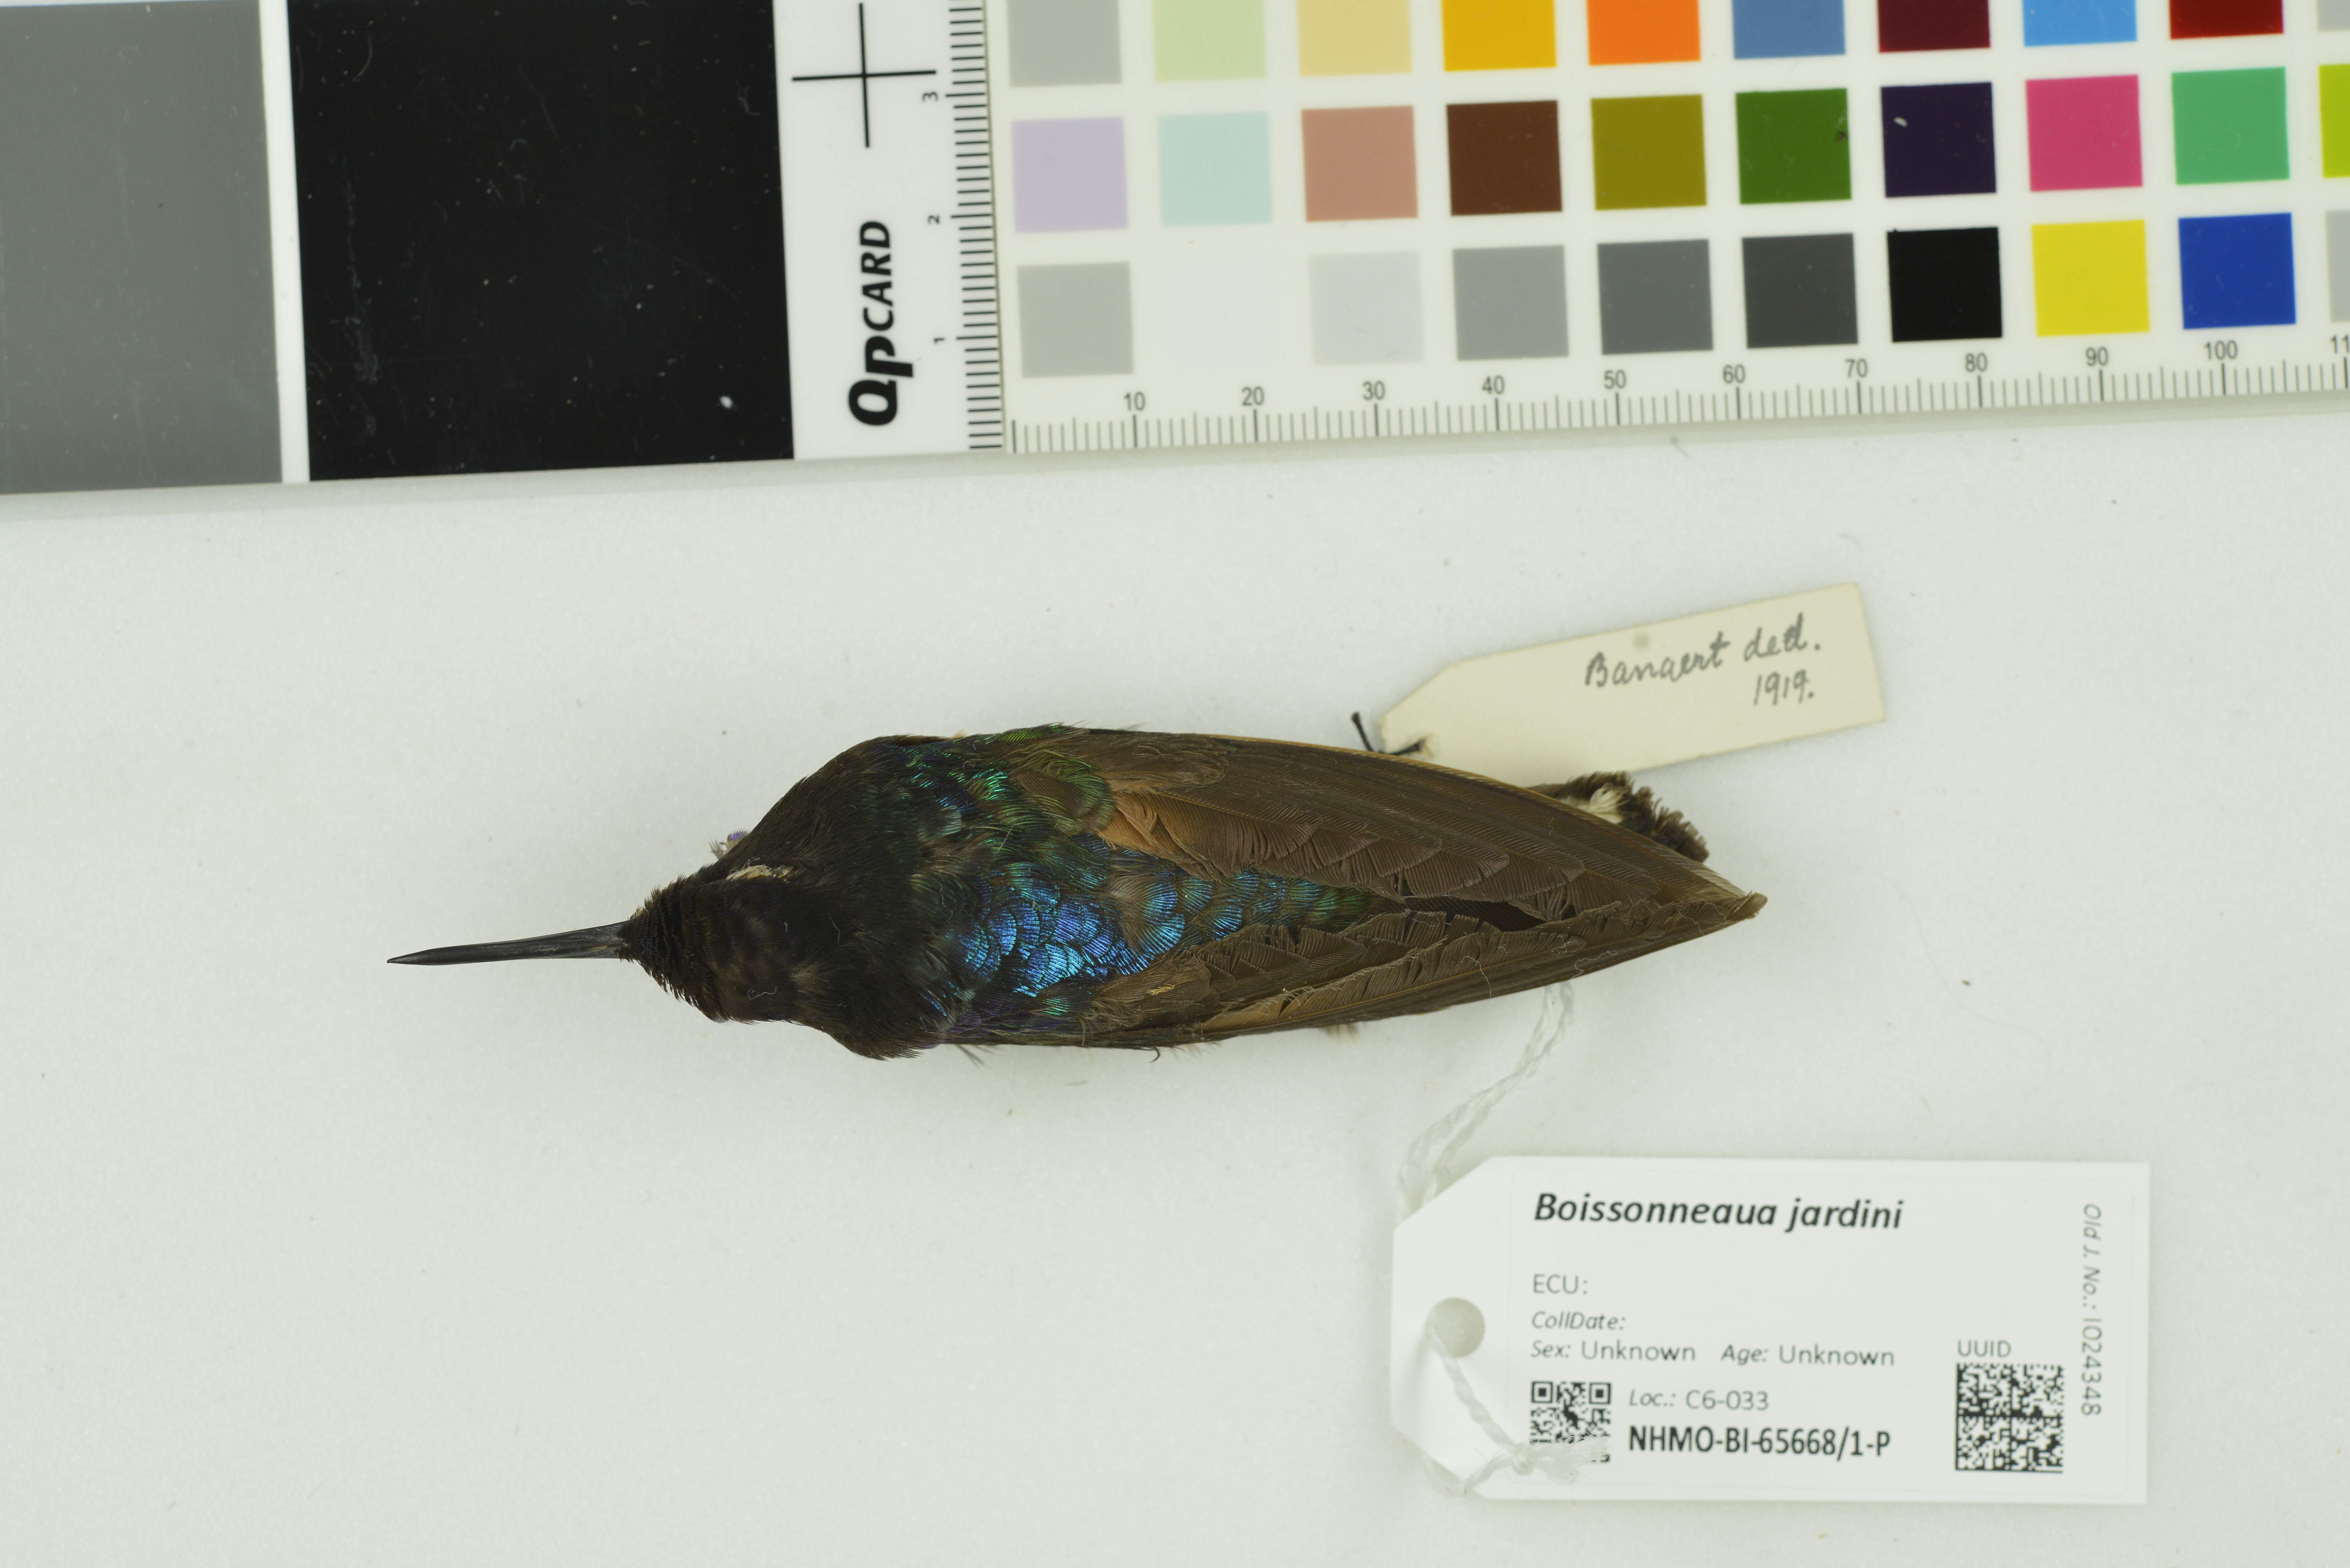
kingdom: Animalia
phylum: Chordata
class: Aves
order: Apodiformes
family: Trochilidae
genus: Boissonneaua
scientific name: Boissonneaua jardini
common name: Velvet-purple coronet
